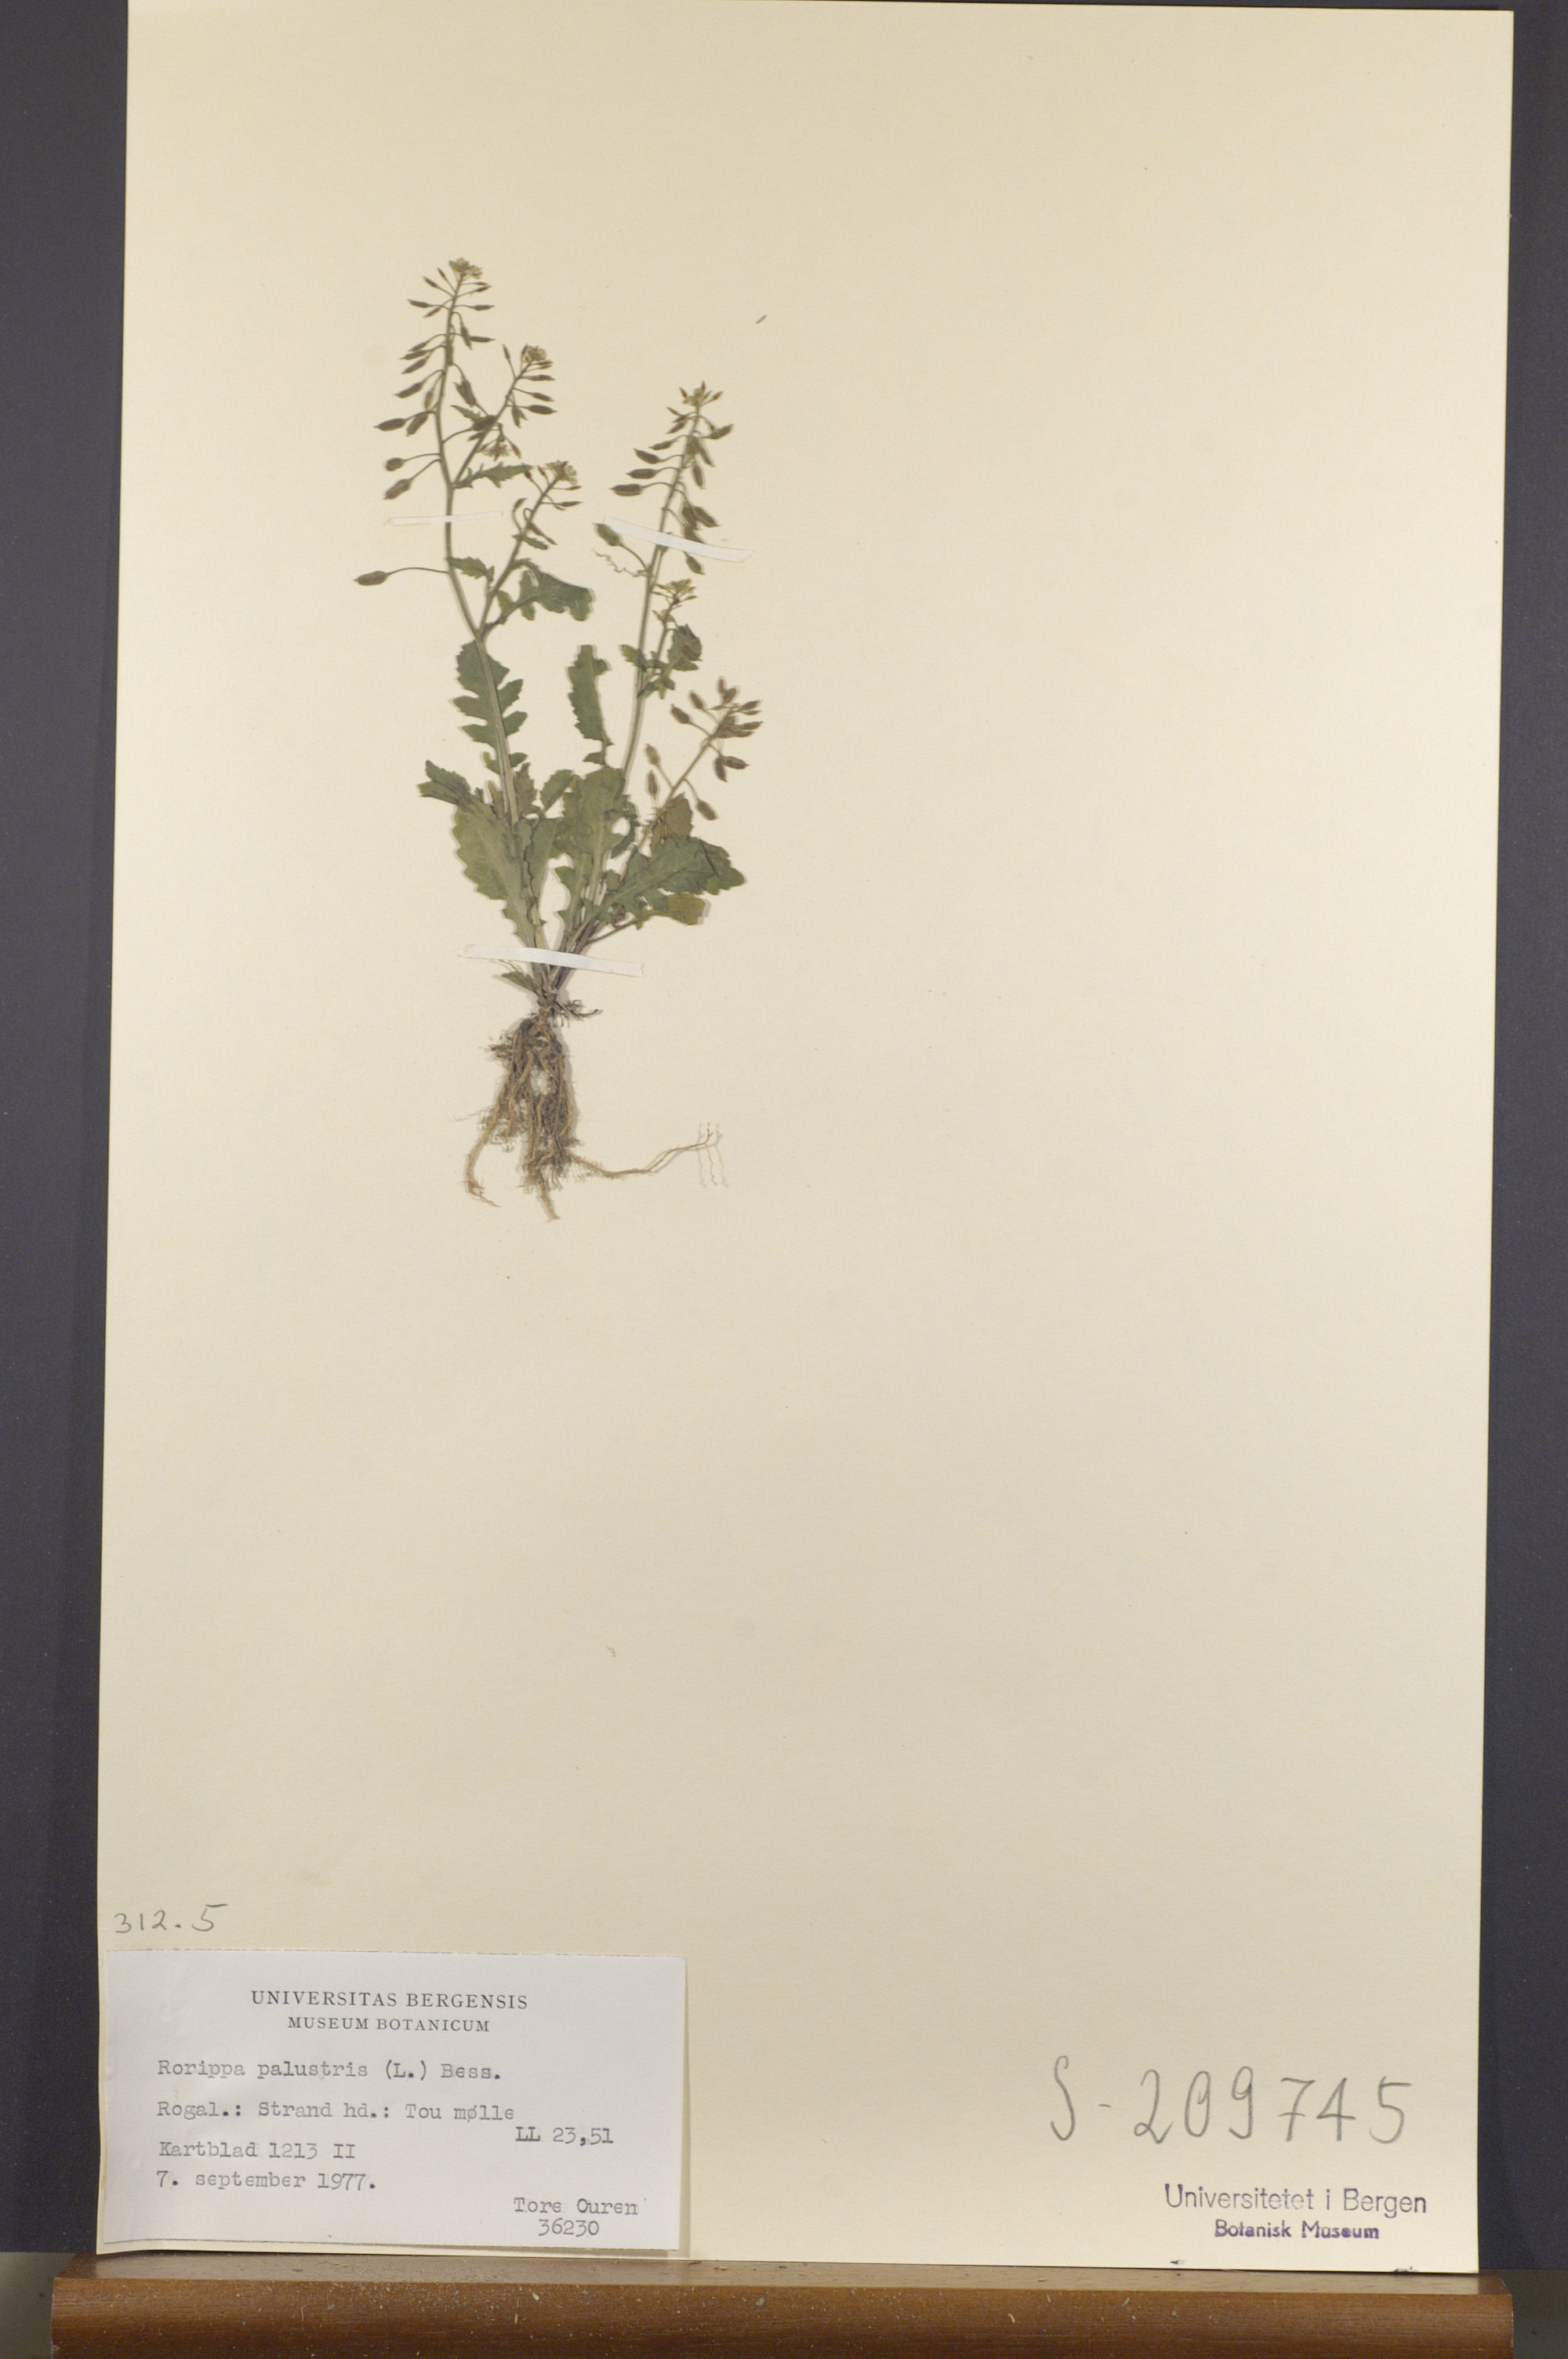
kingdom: Plantae
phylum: Tracheophyta
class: Magnoliopsida
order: Brassicales
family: Brassicaceae
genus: Rorippa
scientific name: Rorippa palustris
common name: Marsh yellow-cress
